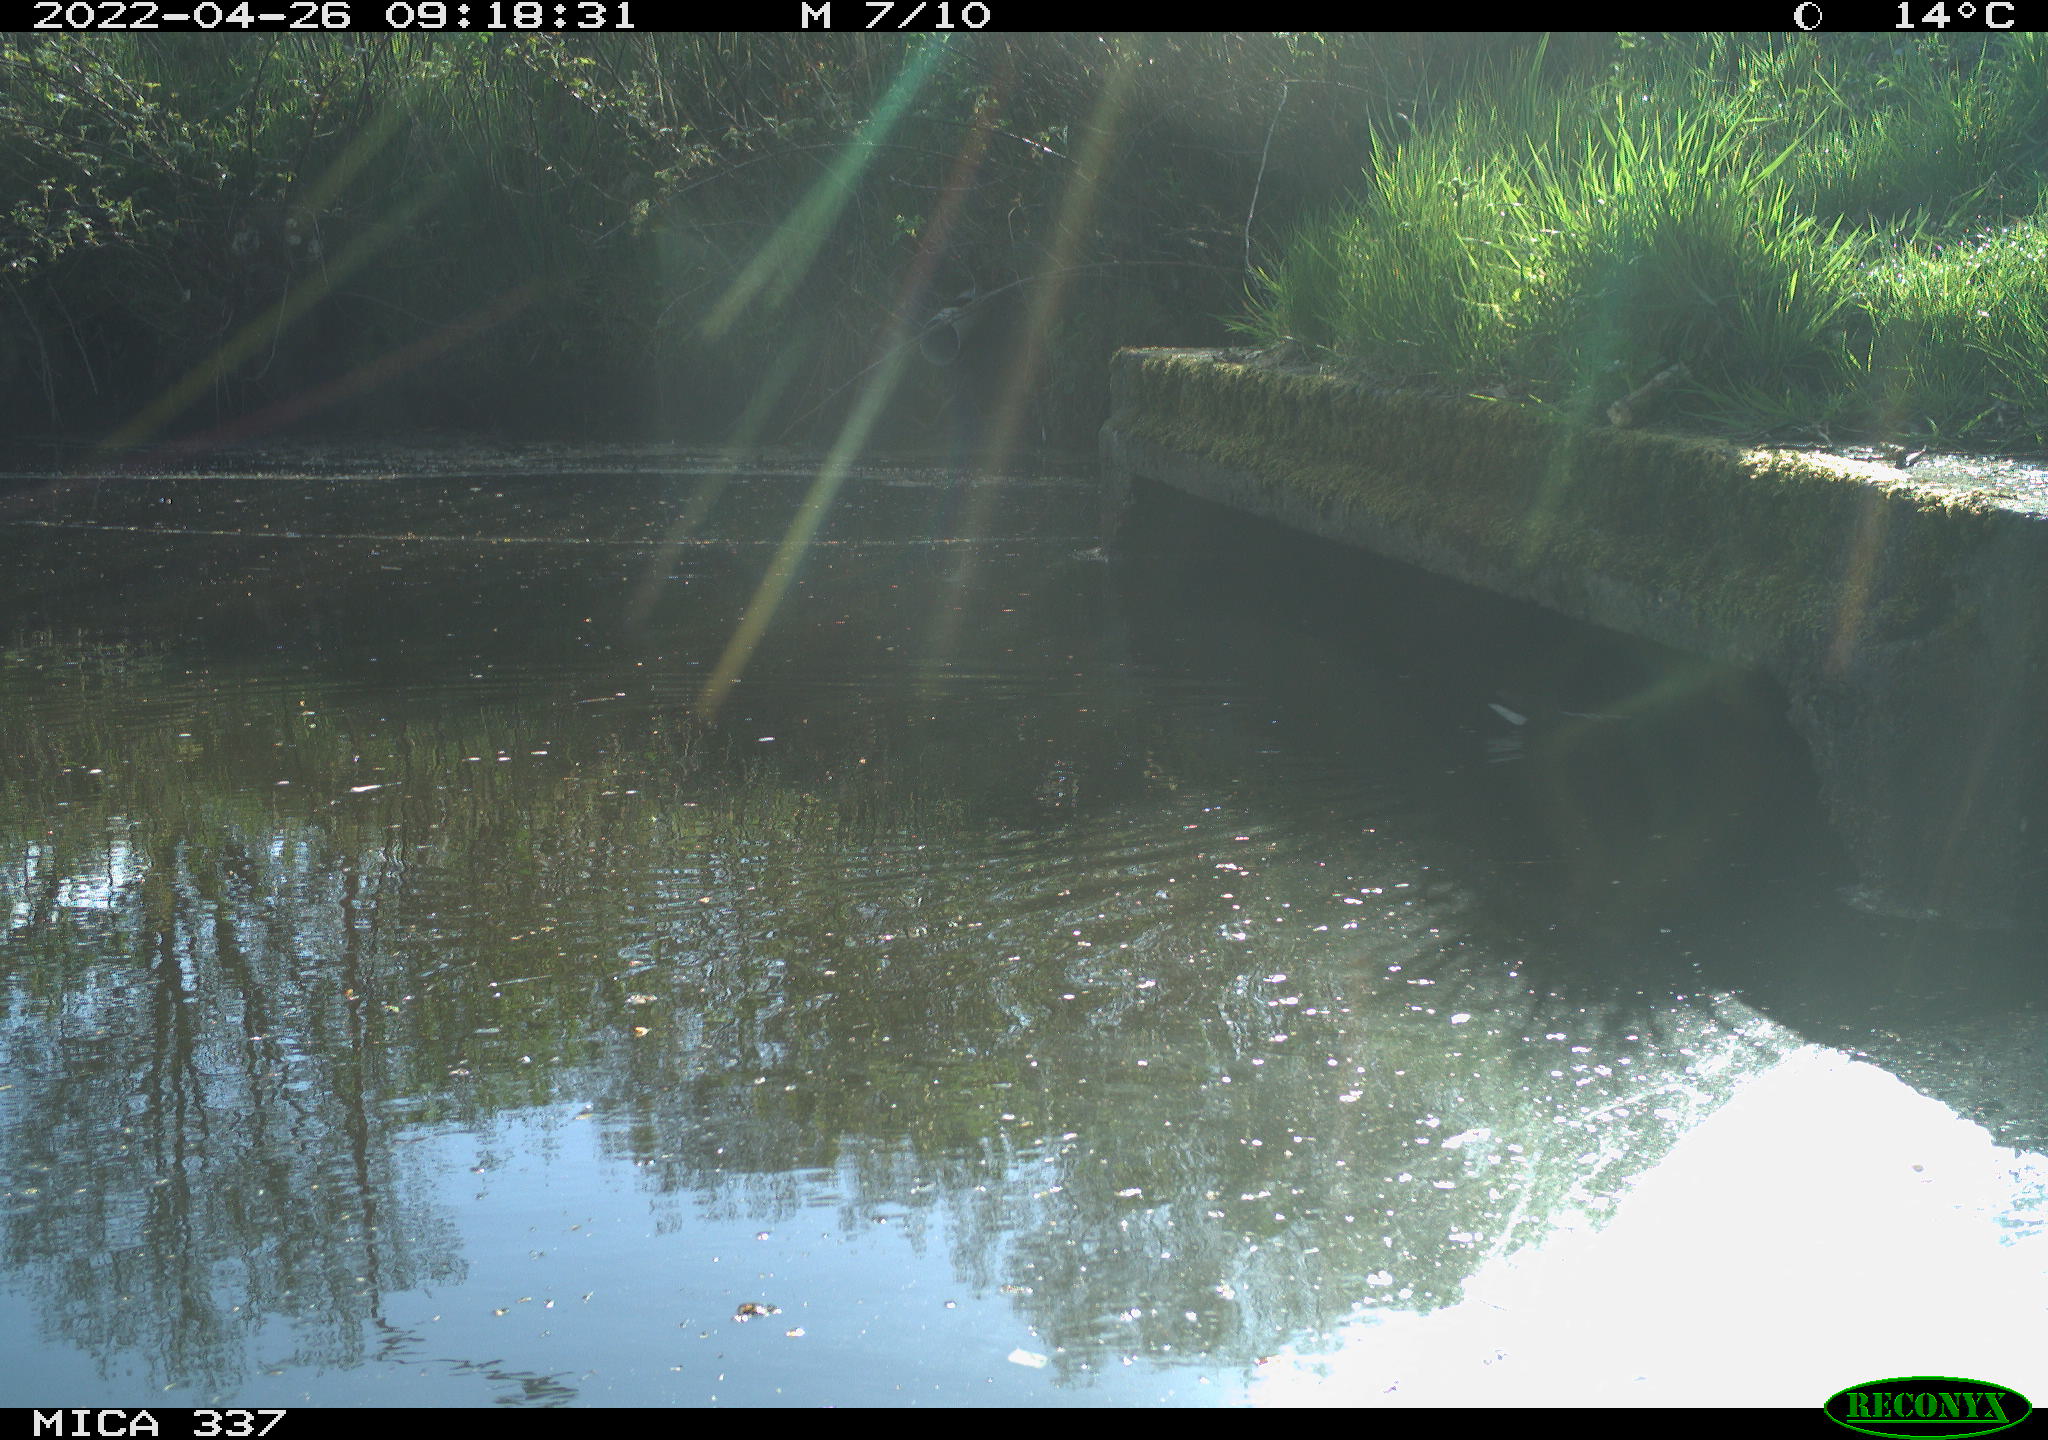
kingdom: Animalia
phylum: Chordata
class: Aves
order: Gruiformes
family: Rallidae
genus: Gallinula
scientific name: Gallinula chloropus
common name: Common moorhen
